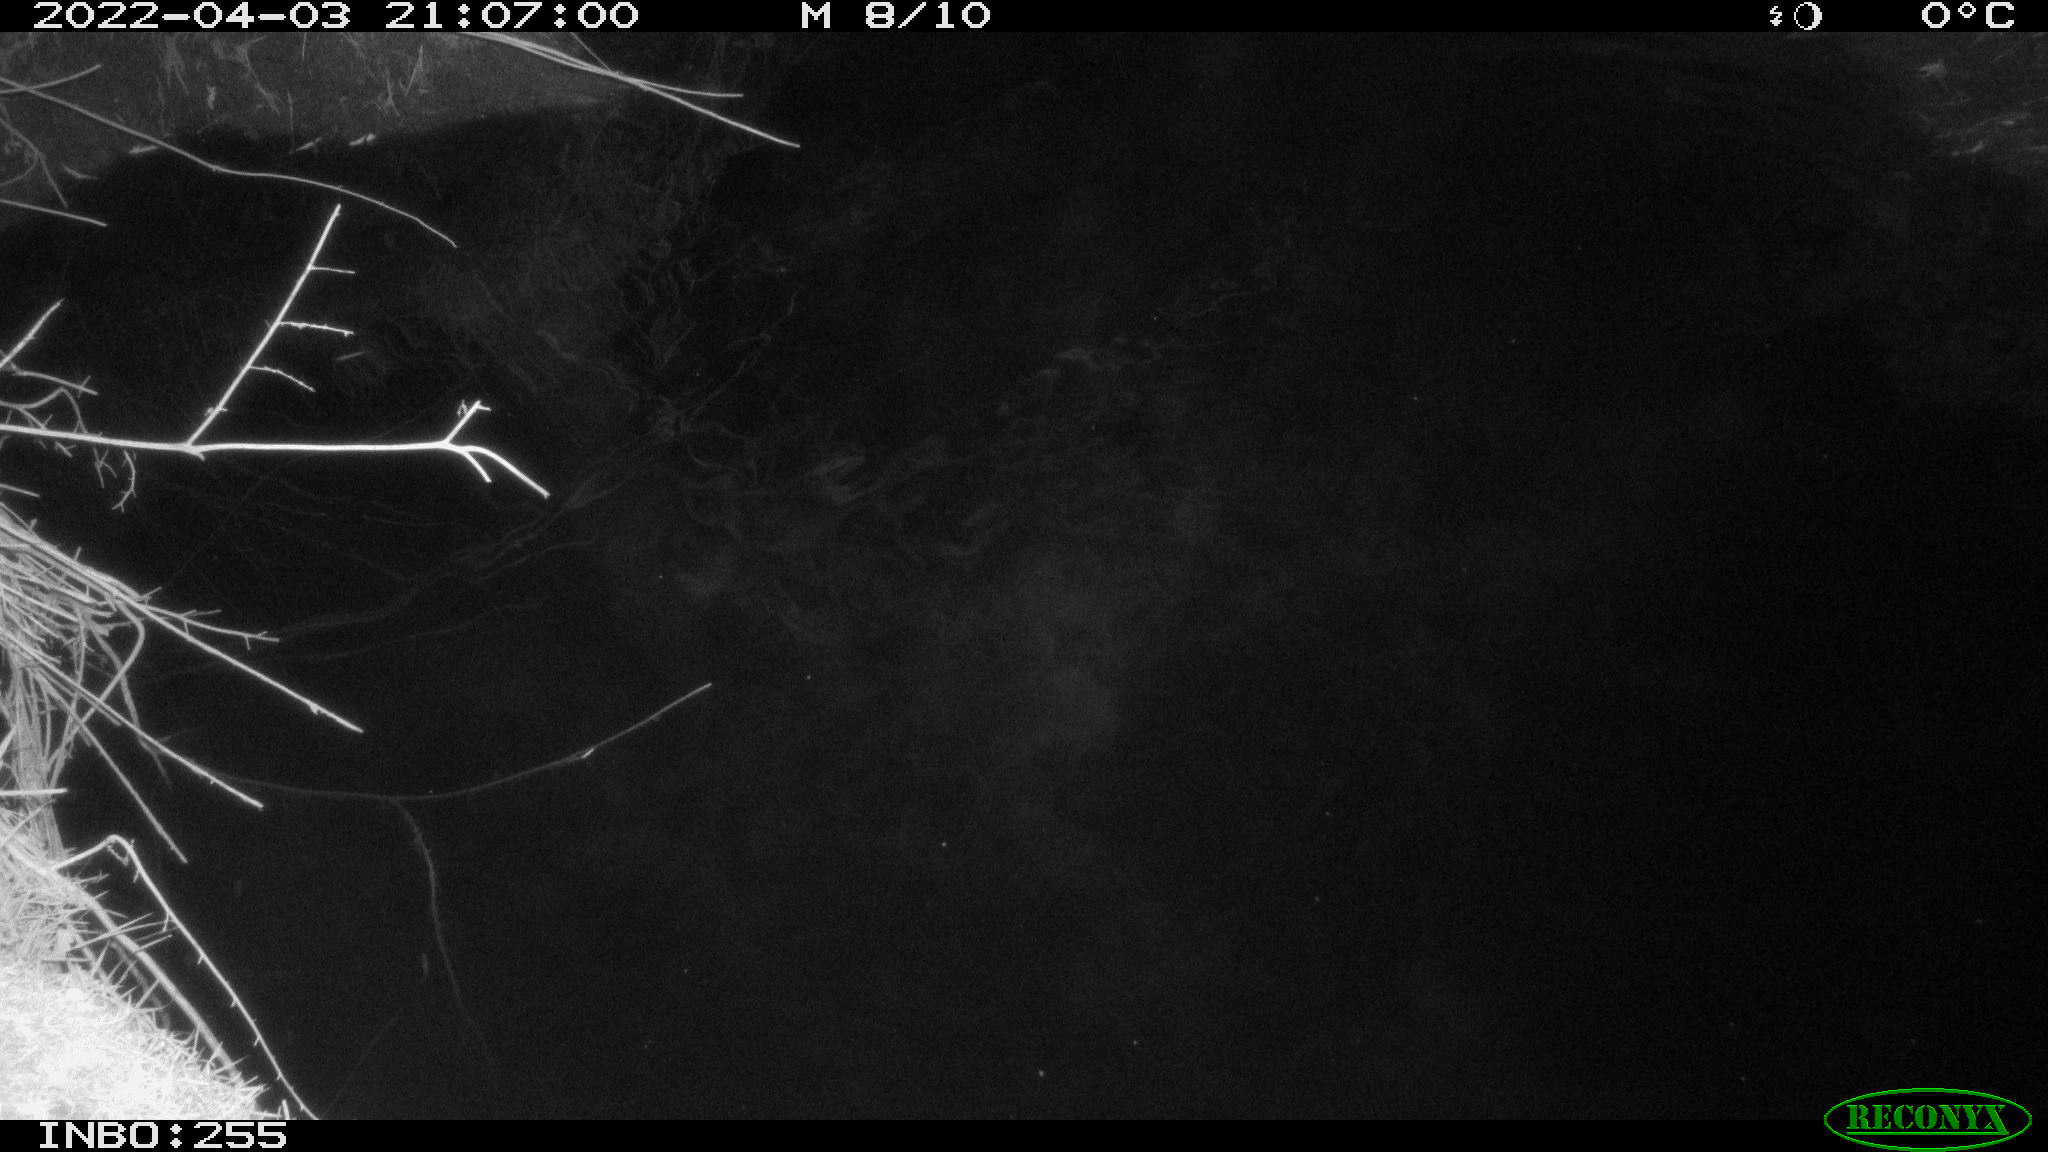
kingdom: Animalia
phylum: Chordata
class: Aves
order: Anseriformes
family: Anatidae
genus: Anas
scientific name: Anas platyrhynchos
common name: Mallard
